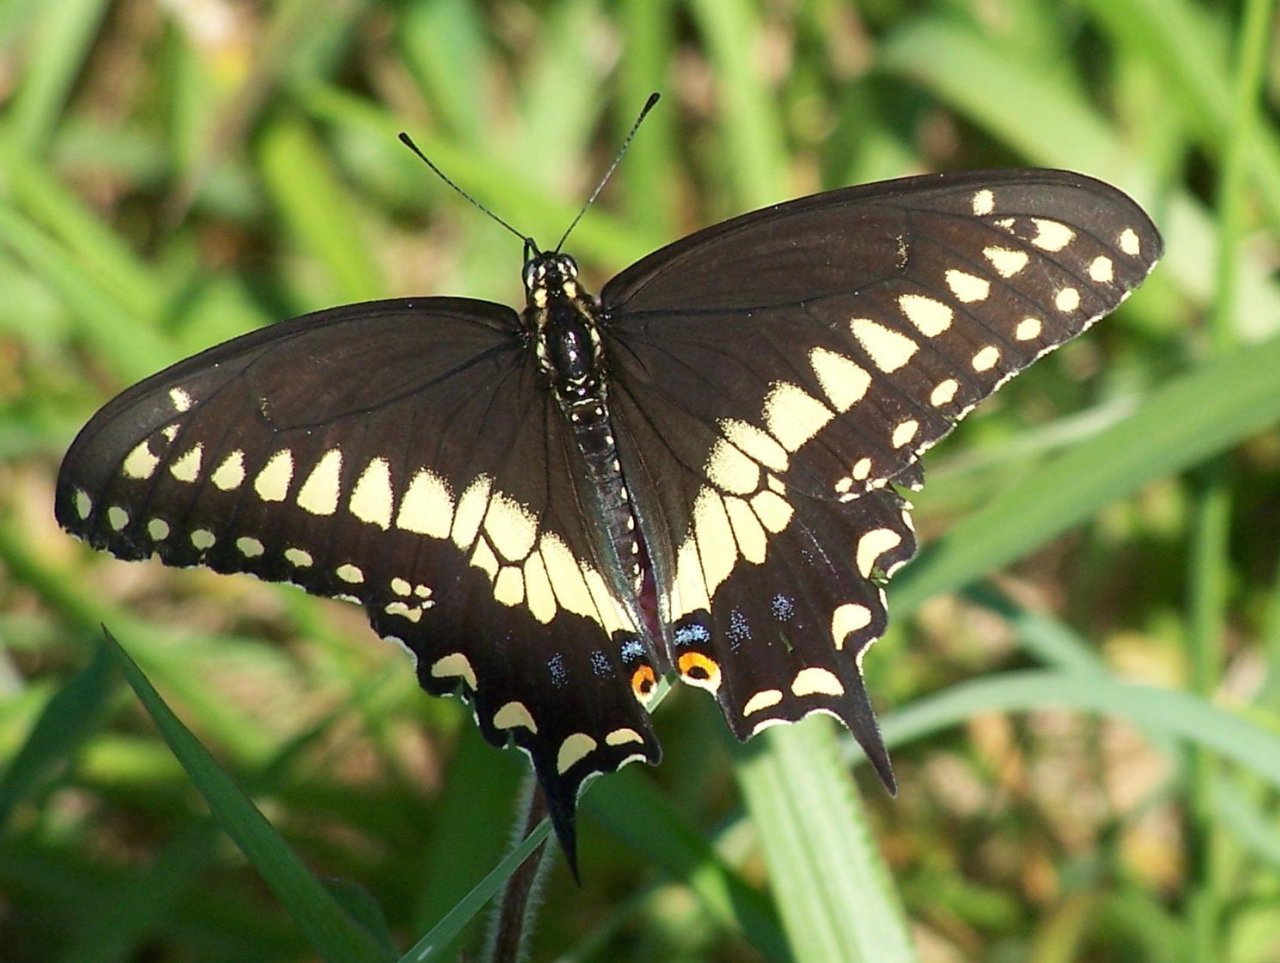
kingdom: Animalia
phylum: Arthropoda
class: Insecta
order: Lepidoptera
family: Papilionidae
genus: Papilio
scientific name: Papilio polyxenes
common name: Black Swallowtail
